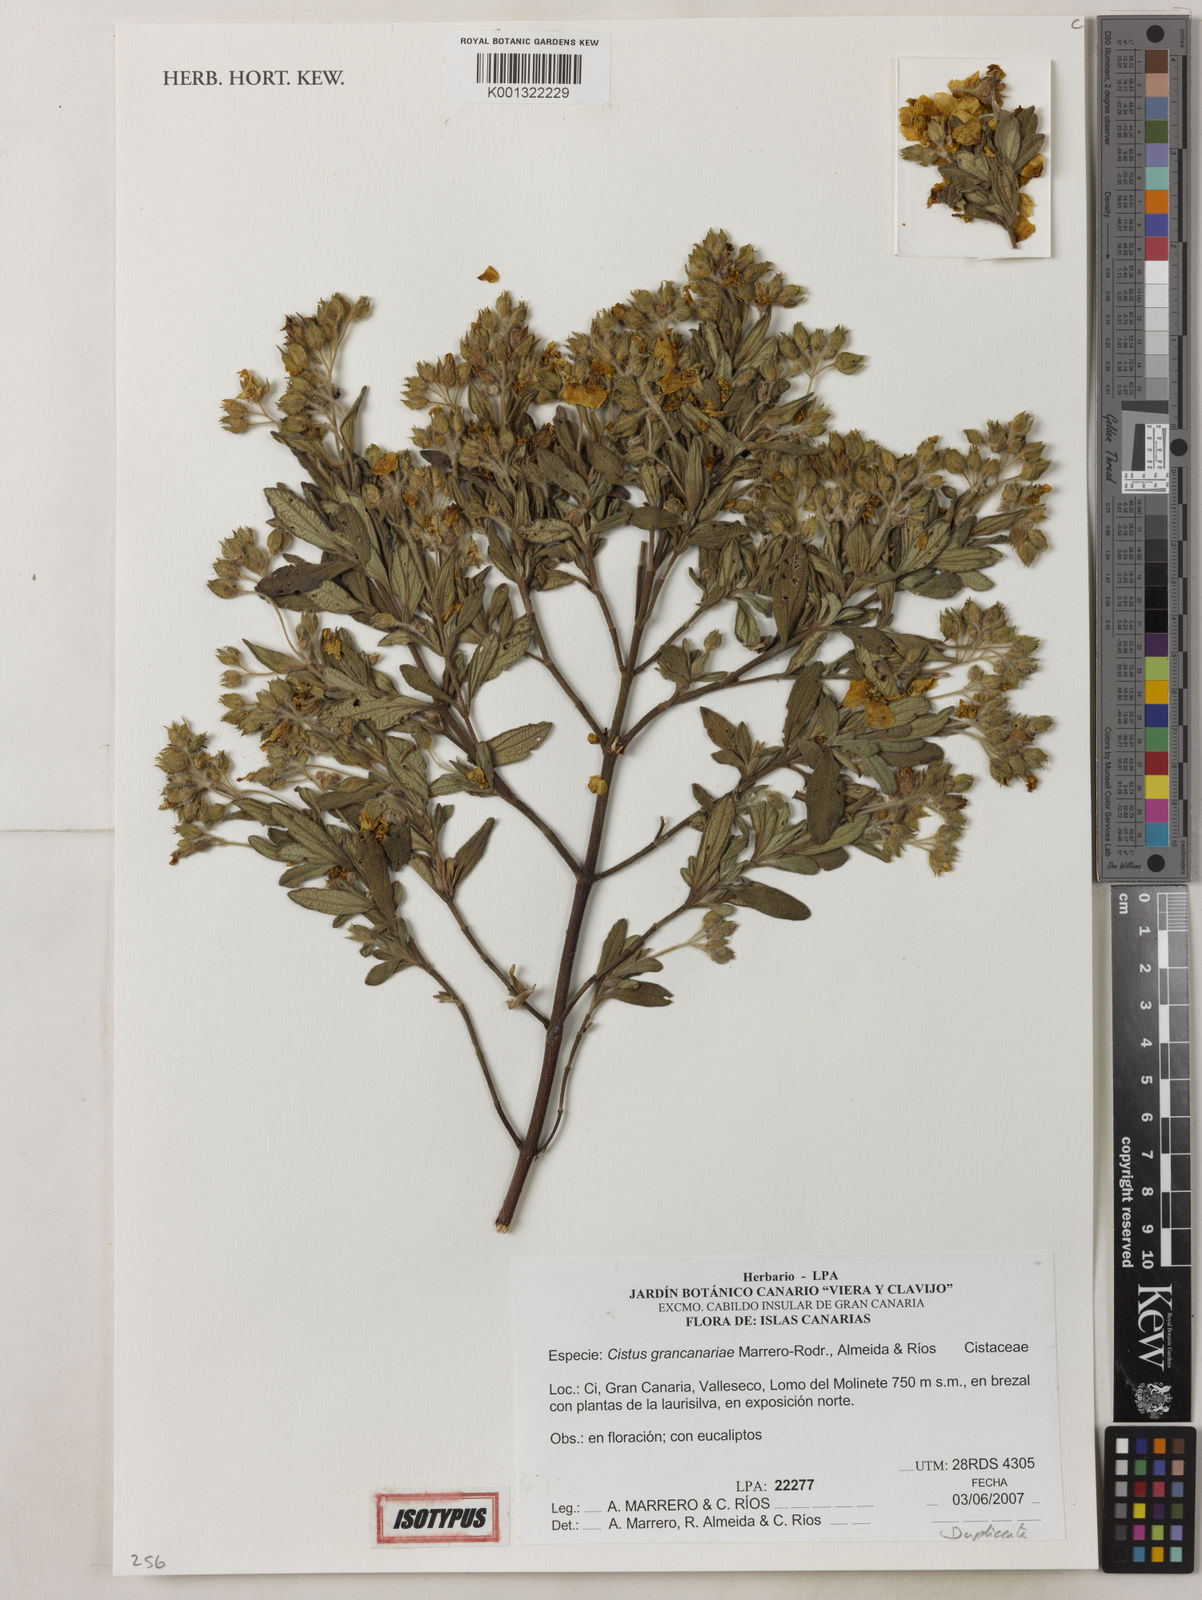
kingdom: Plantae
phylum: Tracheophyta
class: Magnoliopsida
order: Malvales
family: Cistaceae
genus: Cistus
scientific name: Cistus
